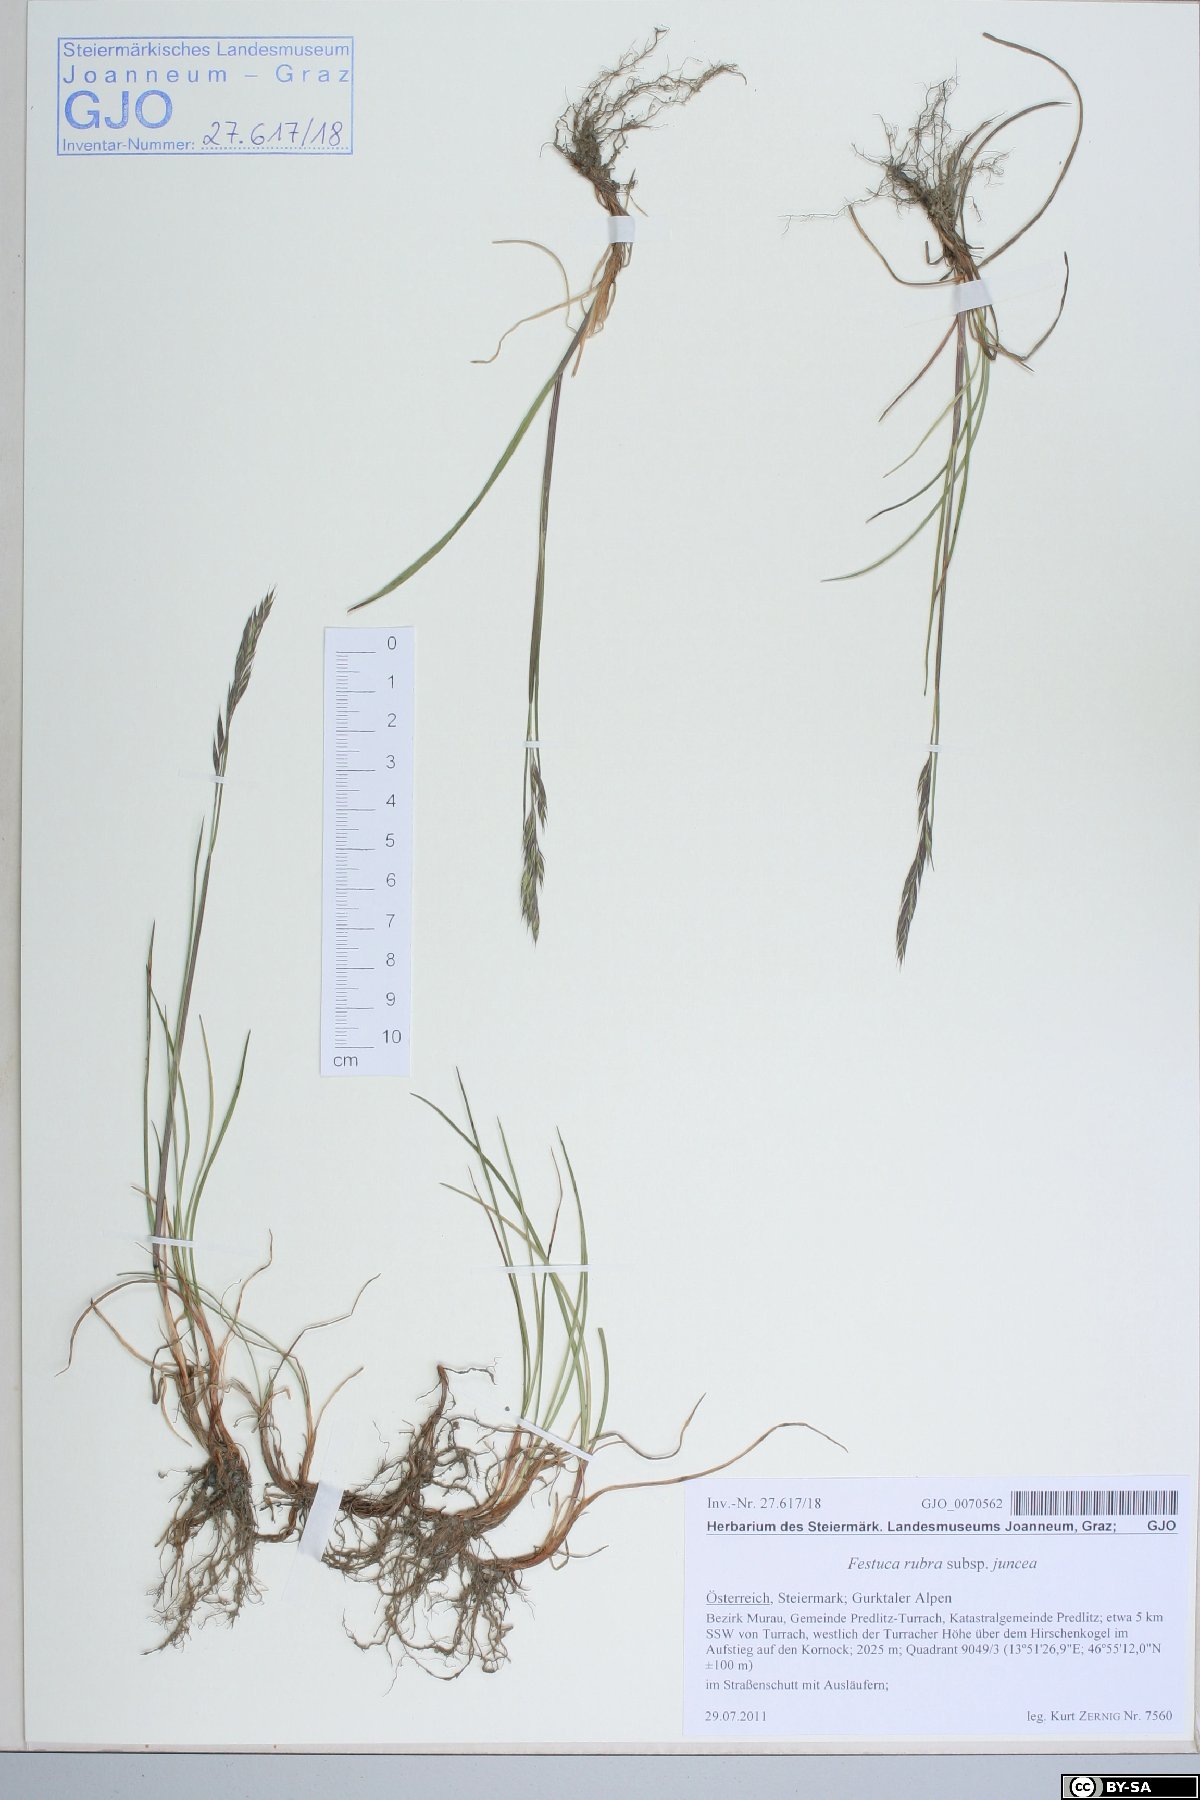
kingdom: Plantae
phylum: Tracheophyta
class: Liliopsida
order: Poales
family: Poaceae
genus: Festuca
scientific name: Festuca rubra
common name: Red fescue
